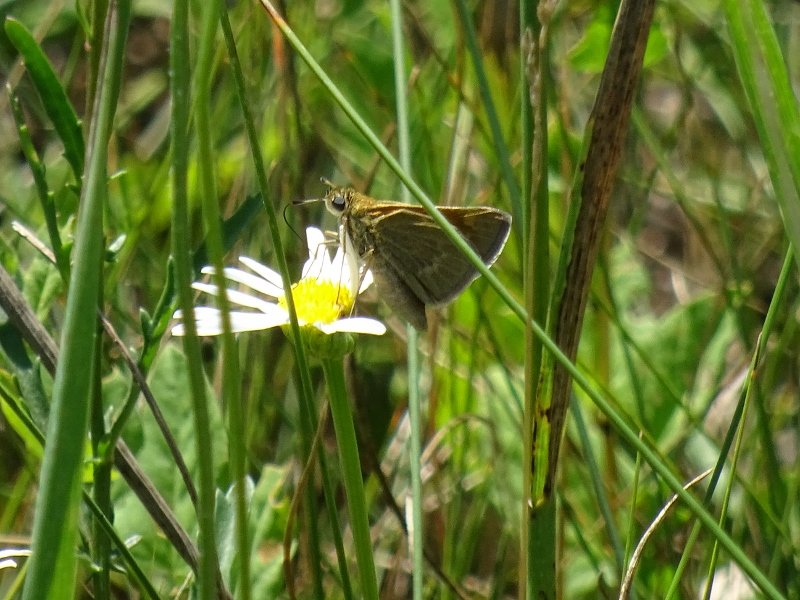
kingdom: Animalia
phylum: Arthropoda
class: Insecta
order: Lepidoptera
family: Hesperiidae
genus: Euphyes
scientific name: Euphyes
